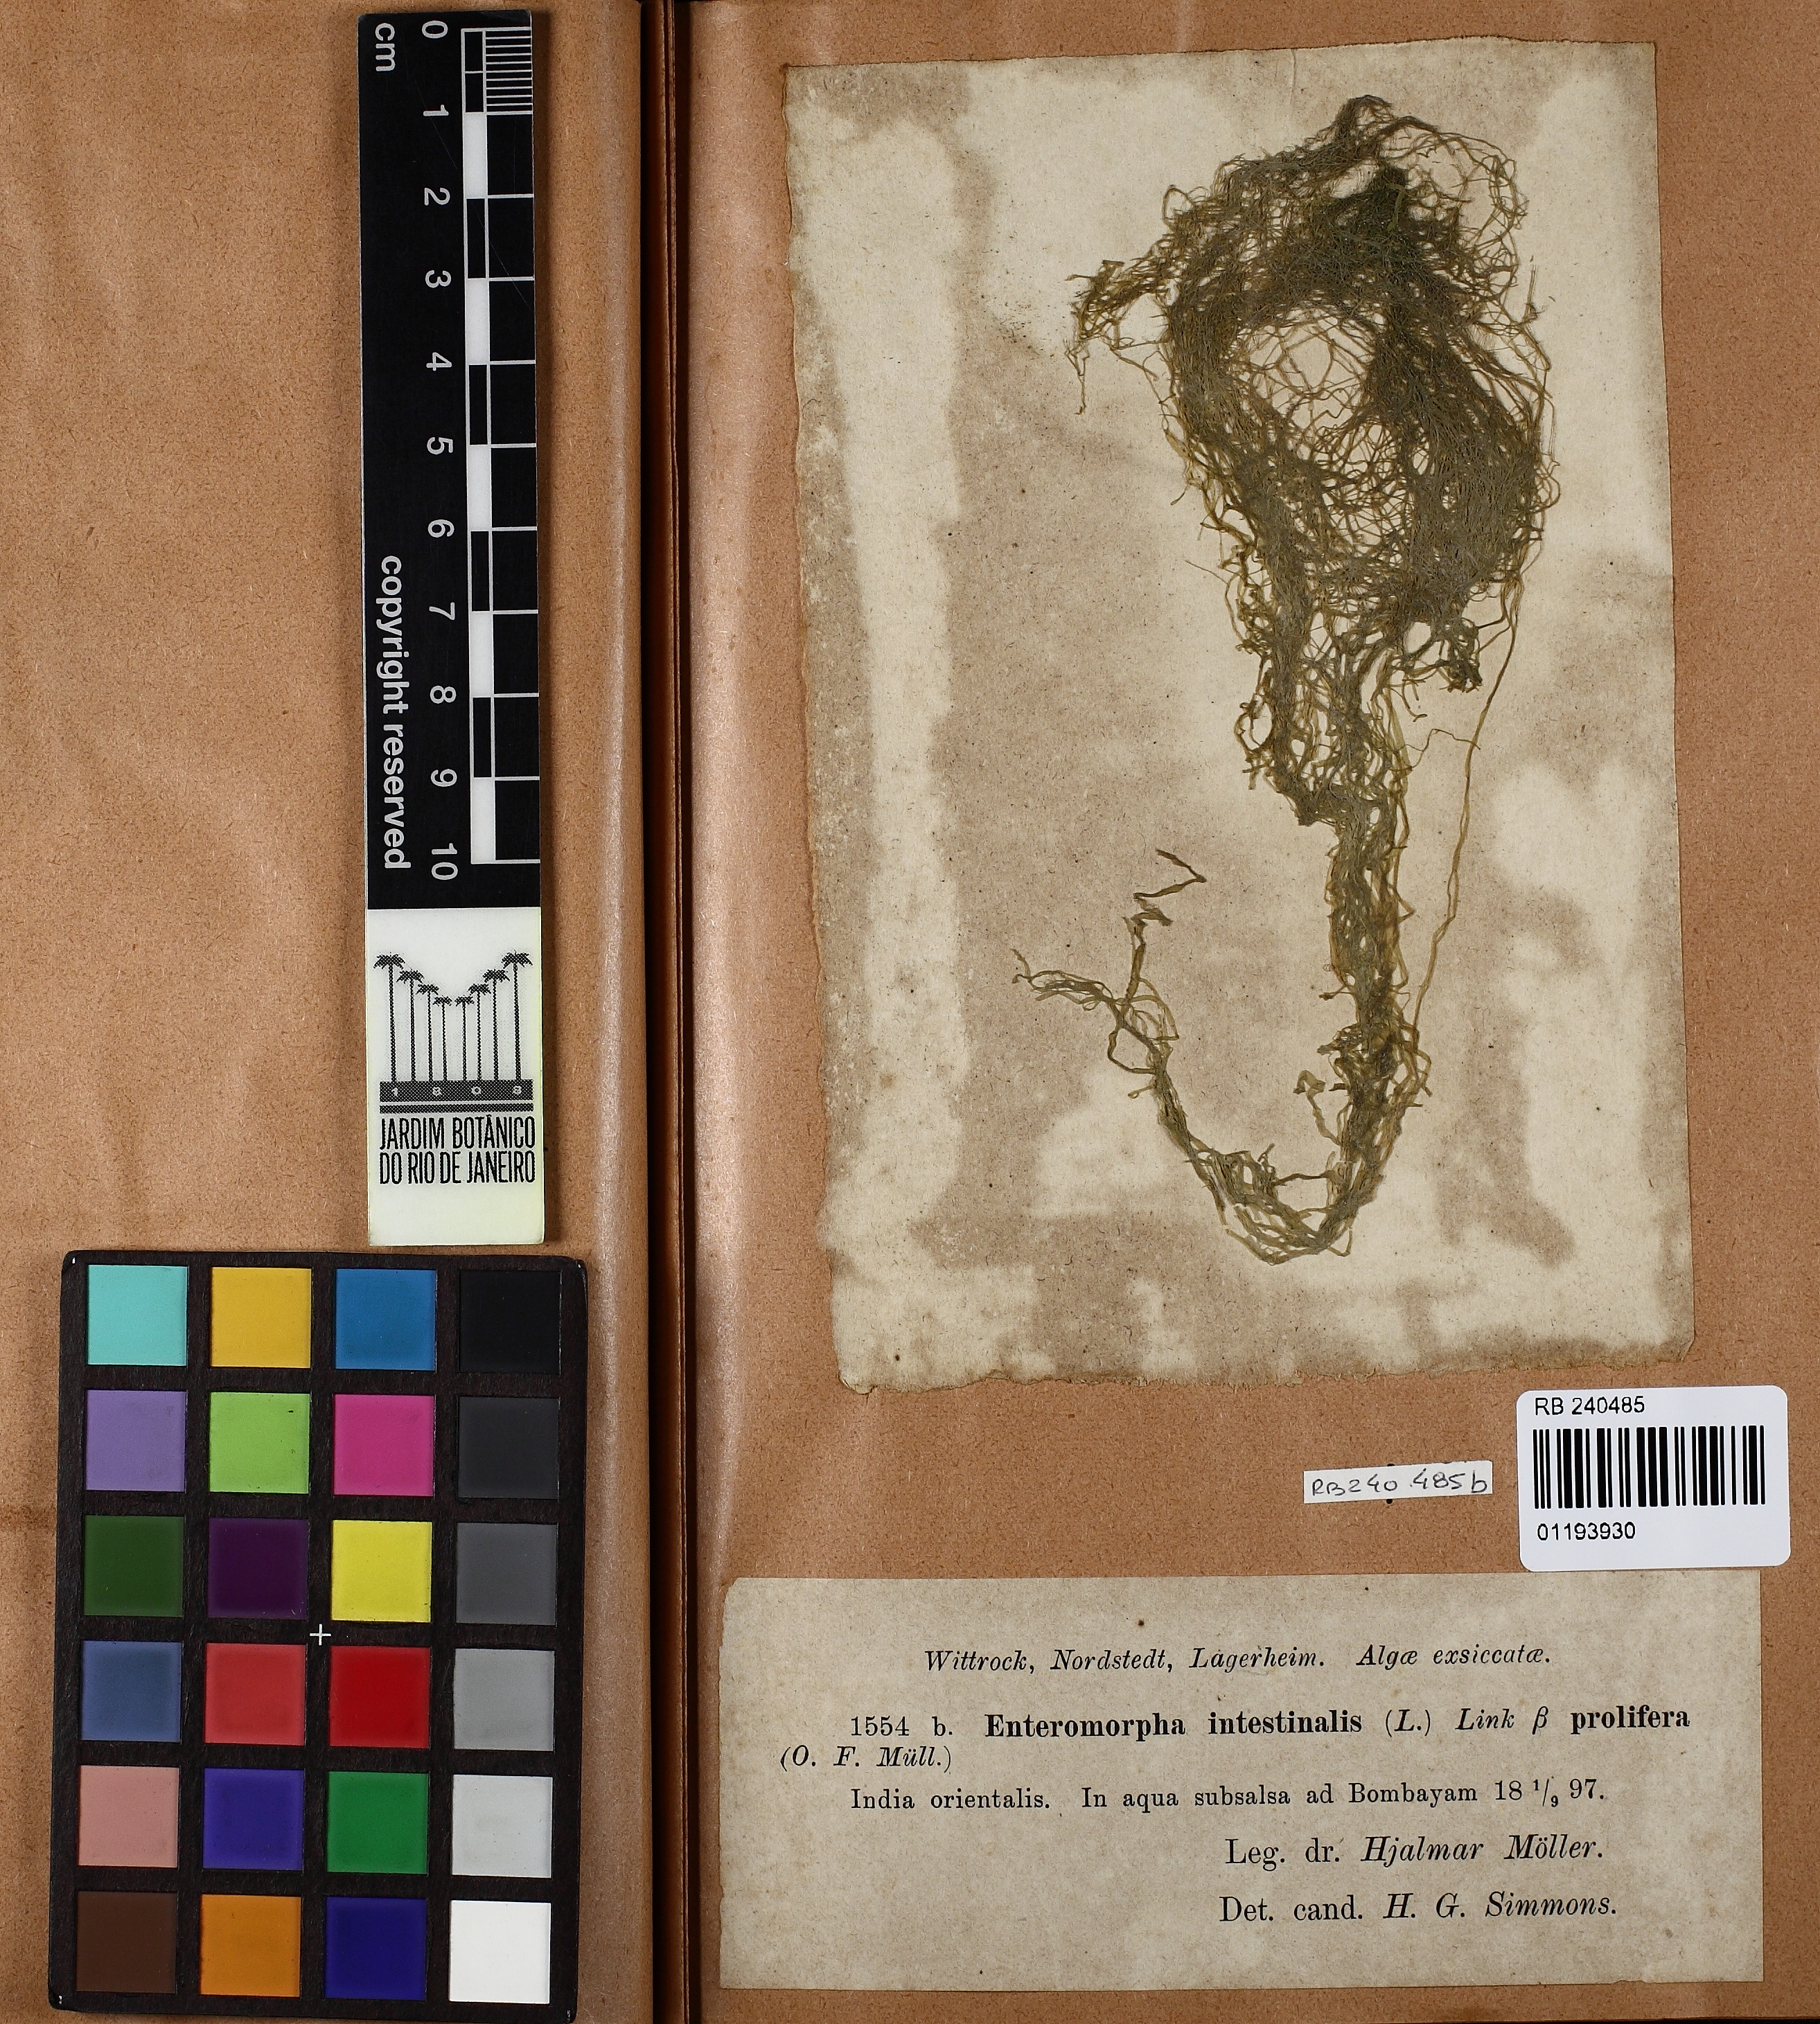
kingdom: Plantae
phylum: Chlorophyta
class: Ulvophyceae
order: Ulvales
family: Ulvaceae
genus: Ulva
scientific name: Ulva intestinalis
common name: Gut weed
